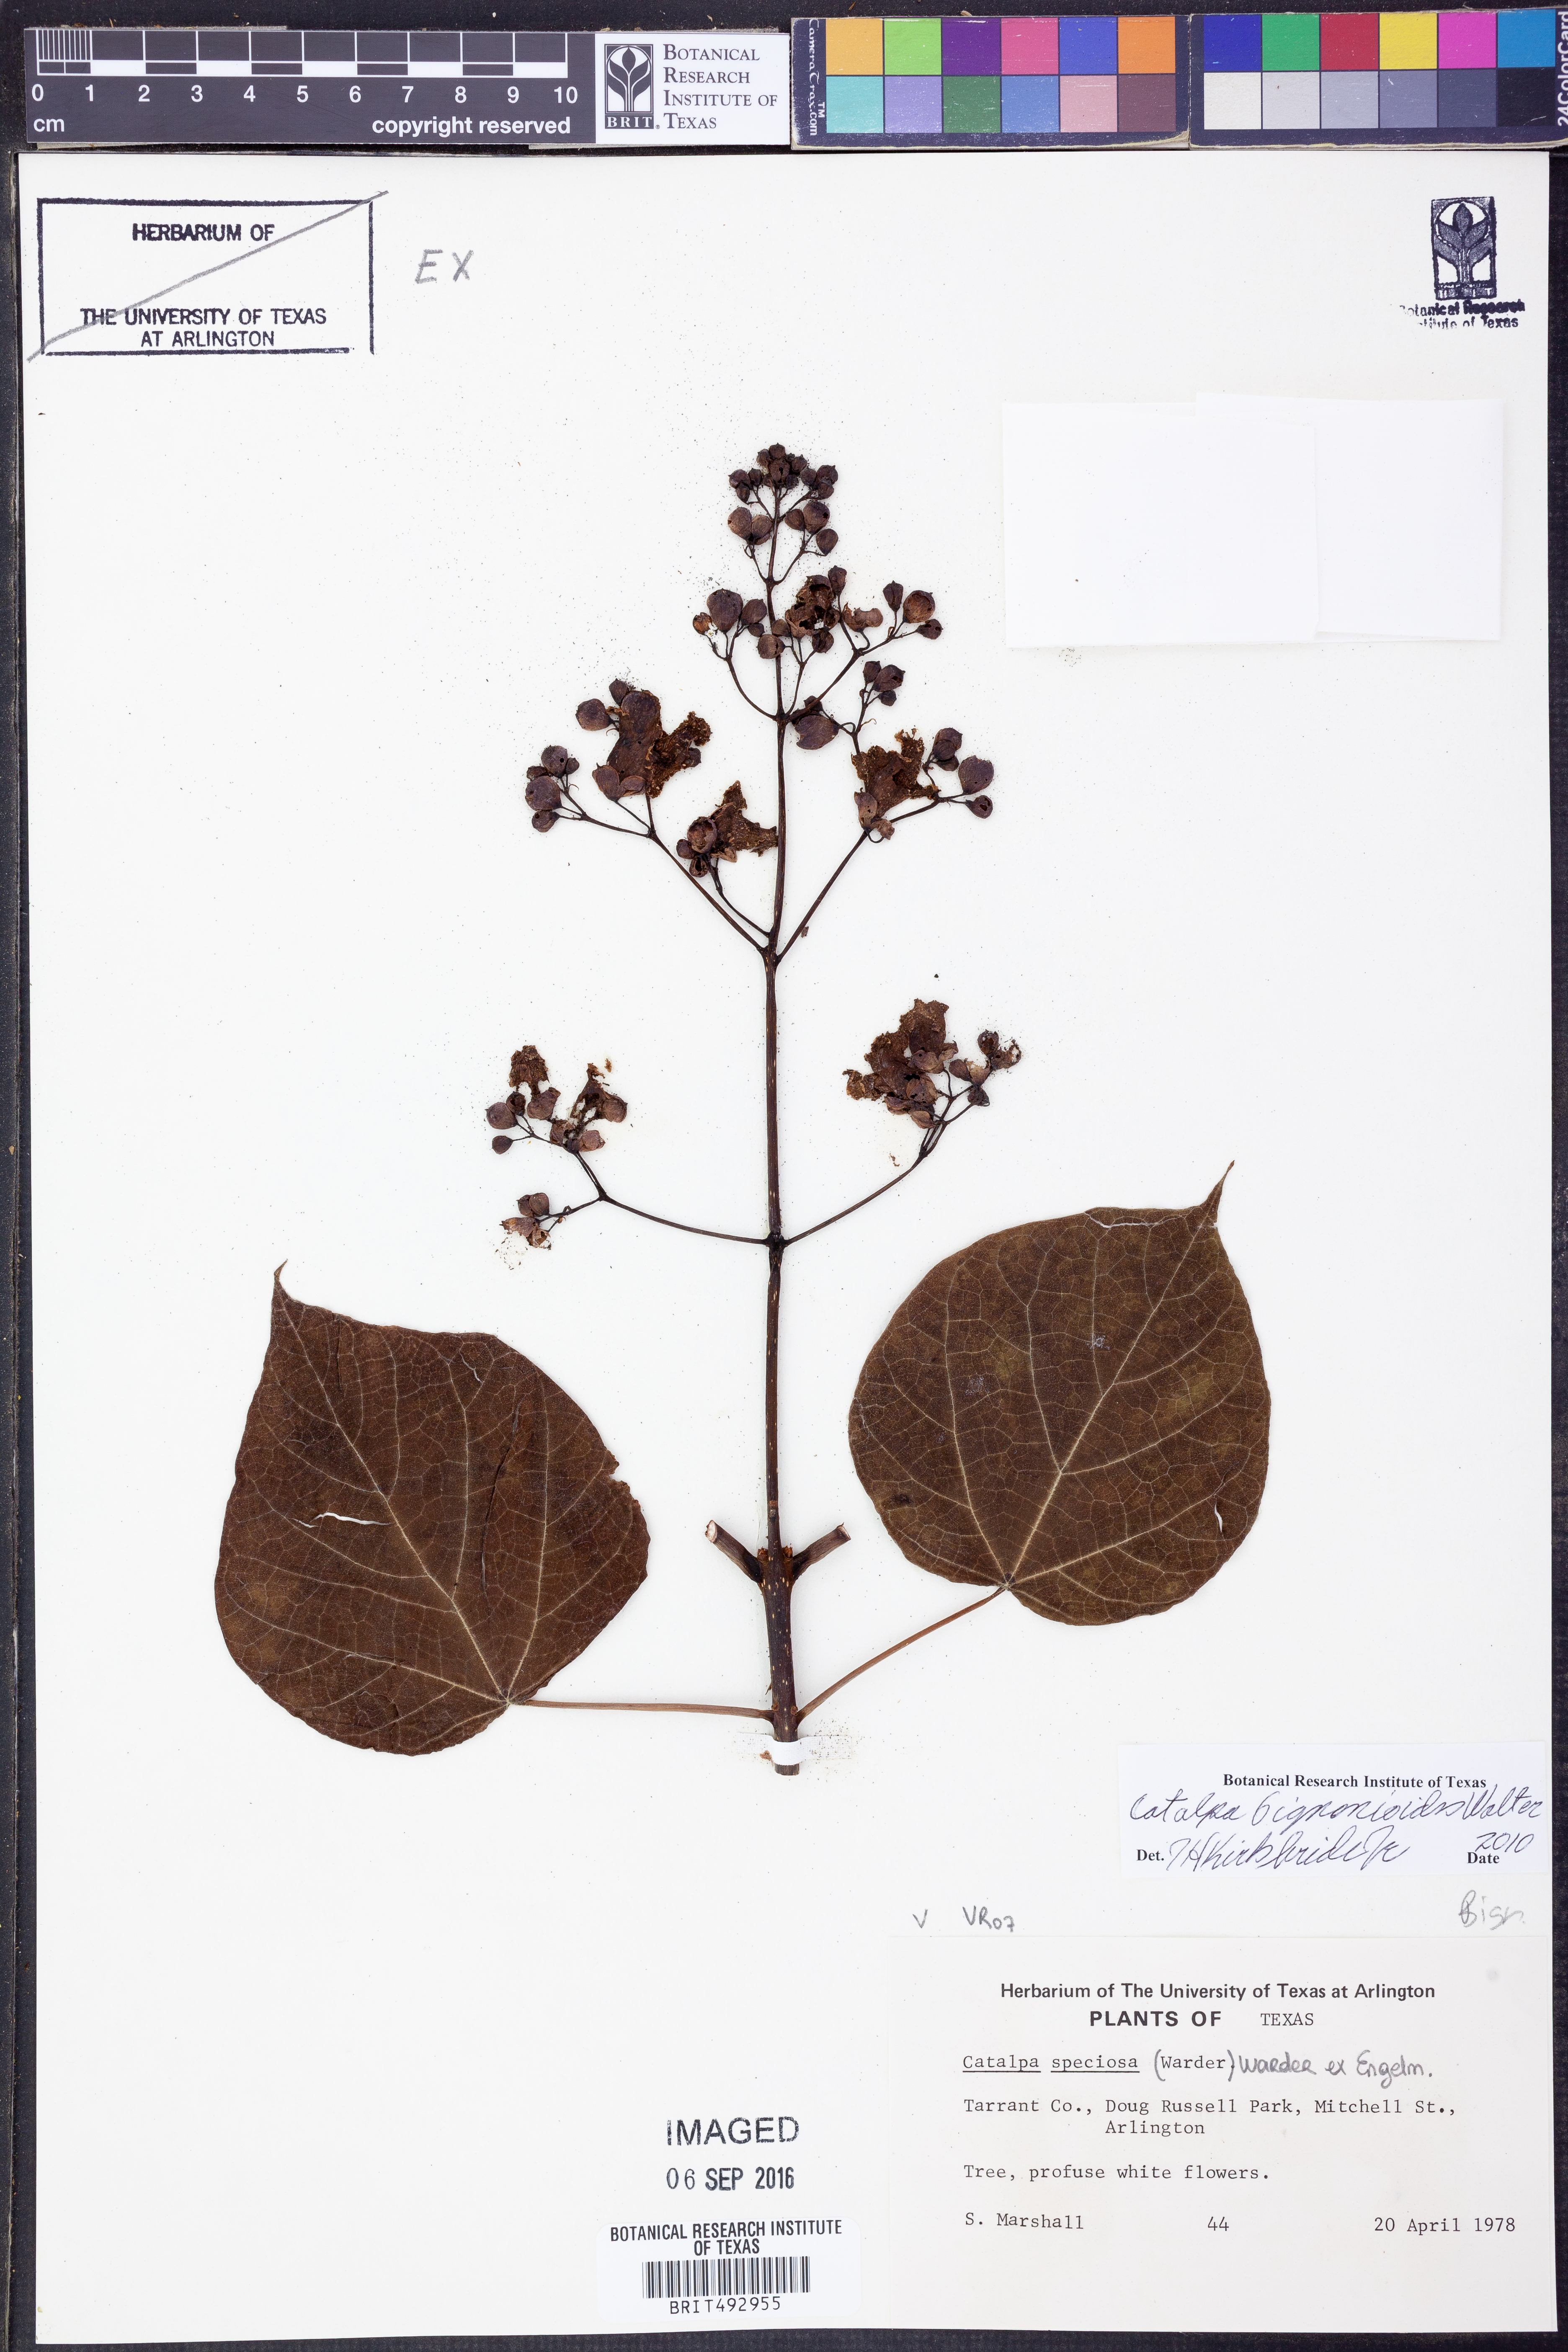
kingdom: Plantae
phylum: Tracheophyta
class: Magnoliopsida
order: Lamiales
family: Bignoniaceae
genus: Catalpa
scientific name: Catalpa bignonioides
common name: Southern catalpa
